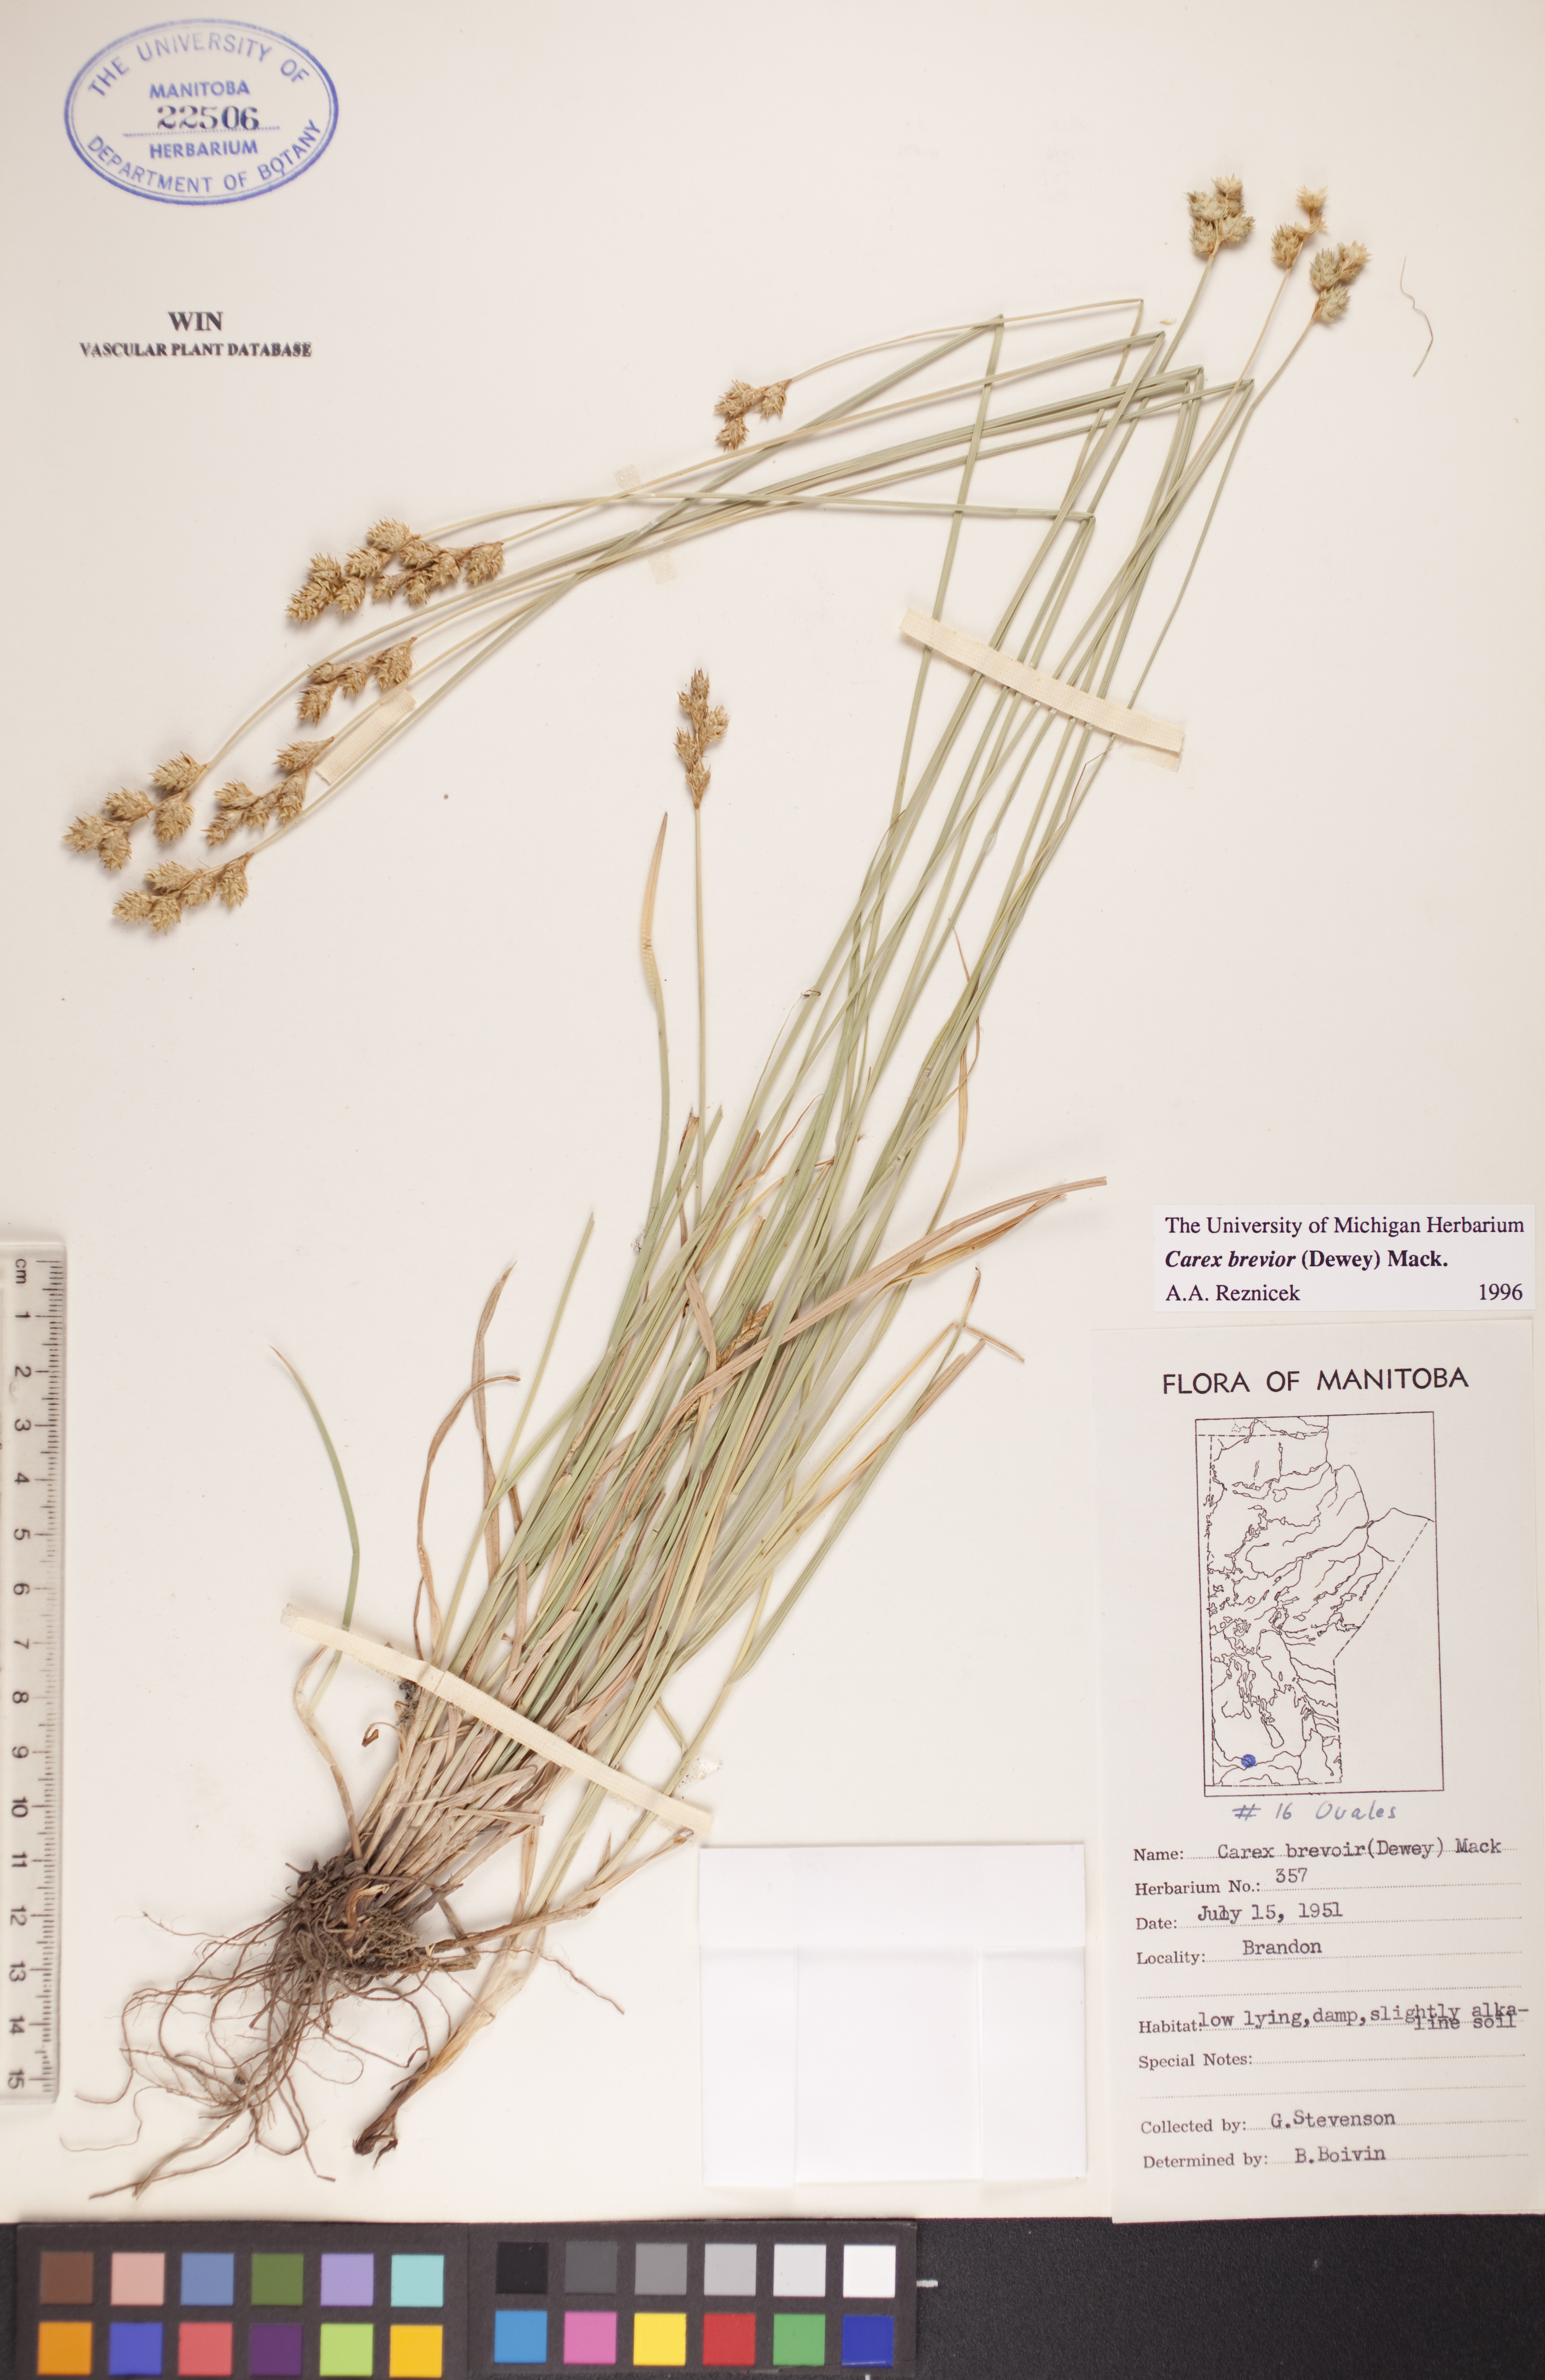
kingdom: Plantae
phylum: Tracheophyta
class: Liliopsida
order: Poales
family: Cyperaceae
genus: Carex
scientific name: Carex brevior
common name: Brevior sedge
